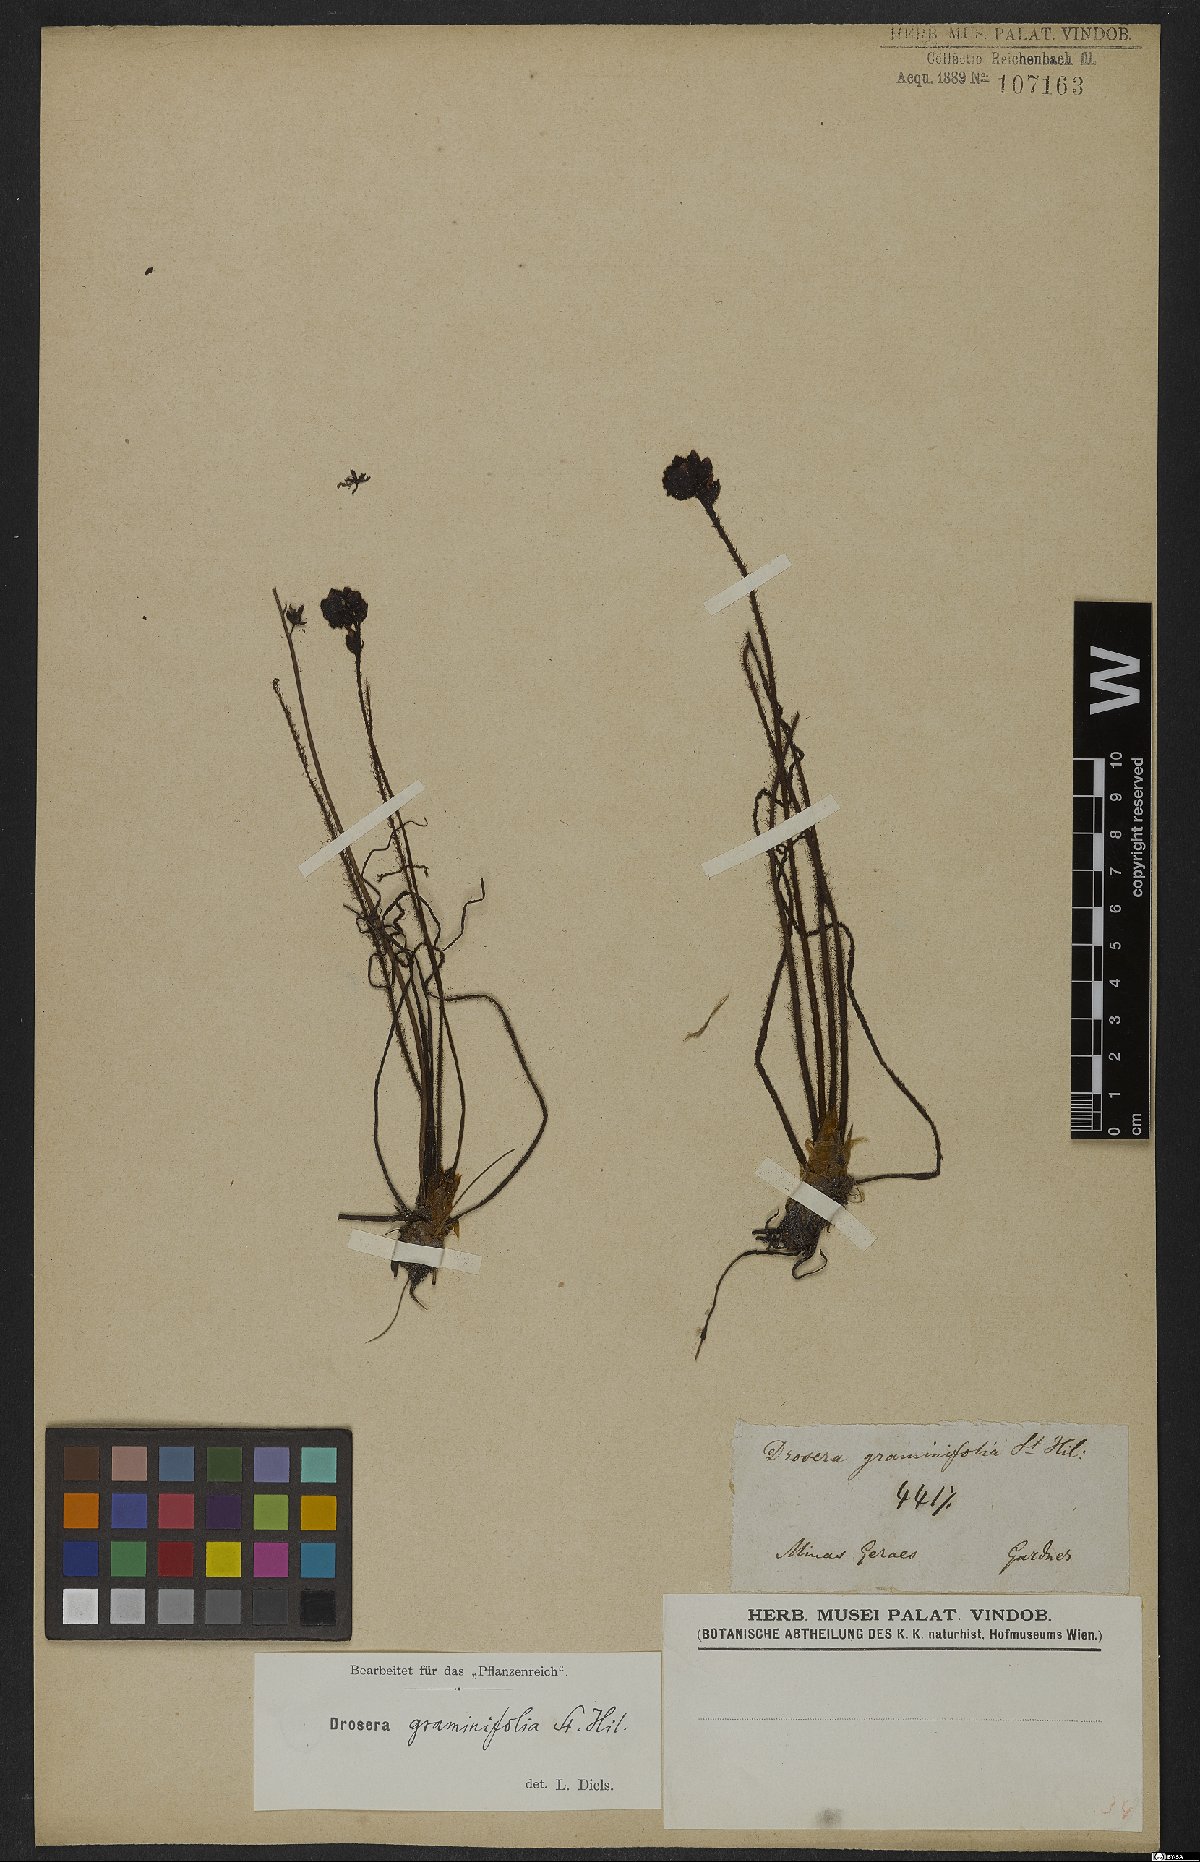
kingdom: Plantae
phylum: Tracheophyta
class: Magnoliopsida
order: Caryophyllales
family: Droseraceae
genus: Drosera
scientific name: Drosera graminifolia
